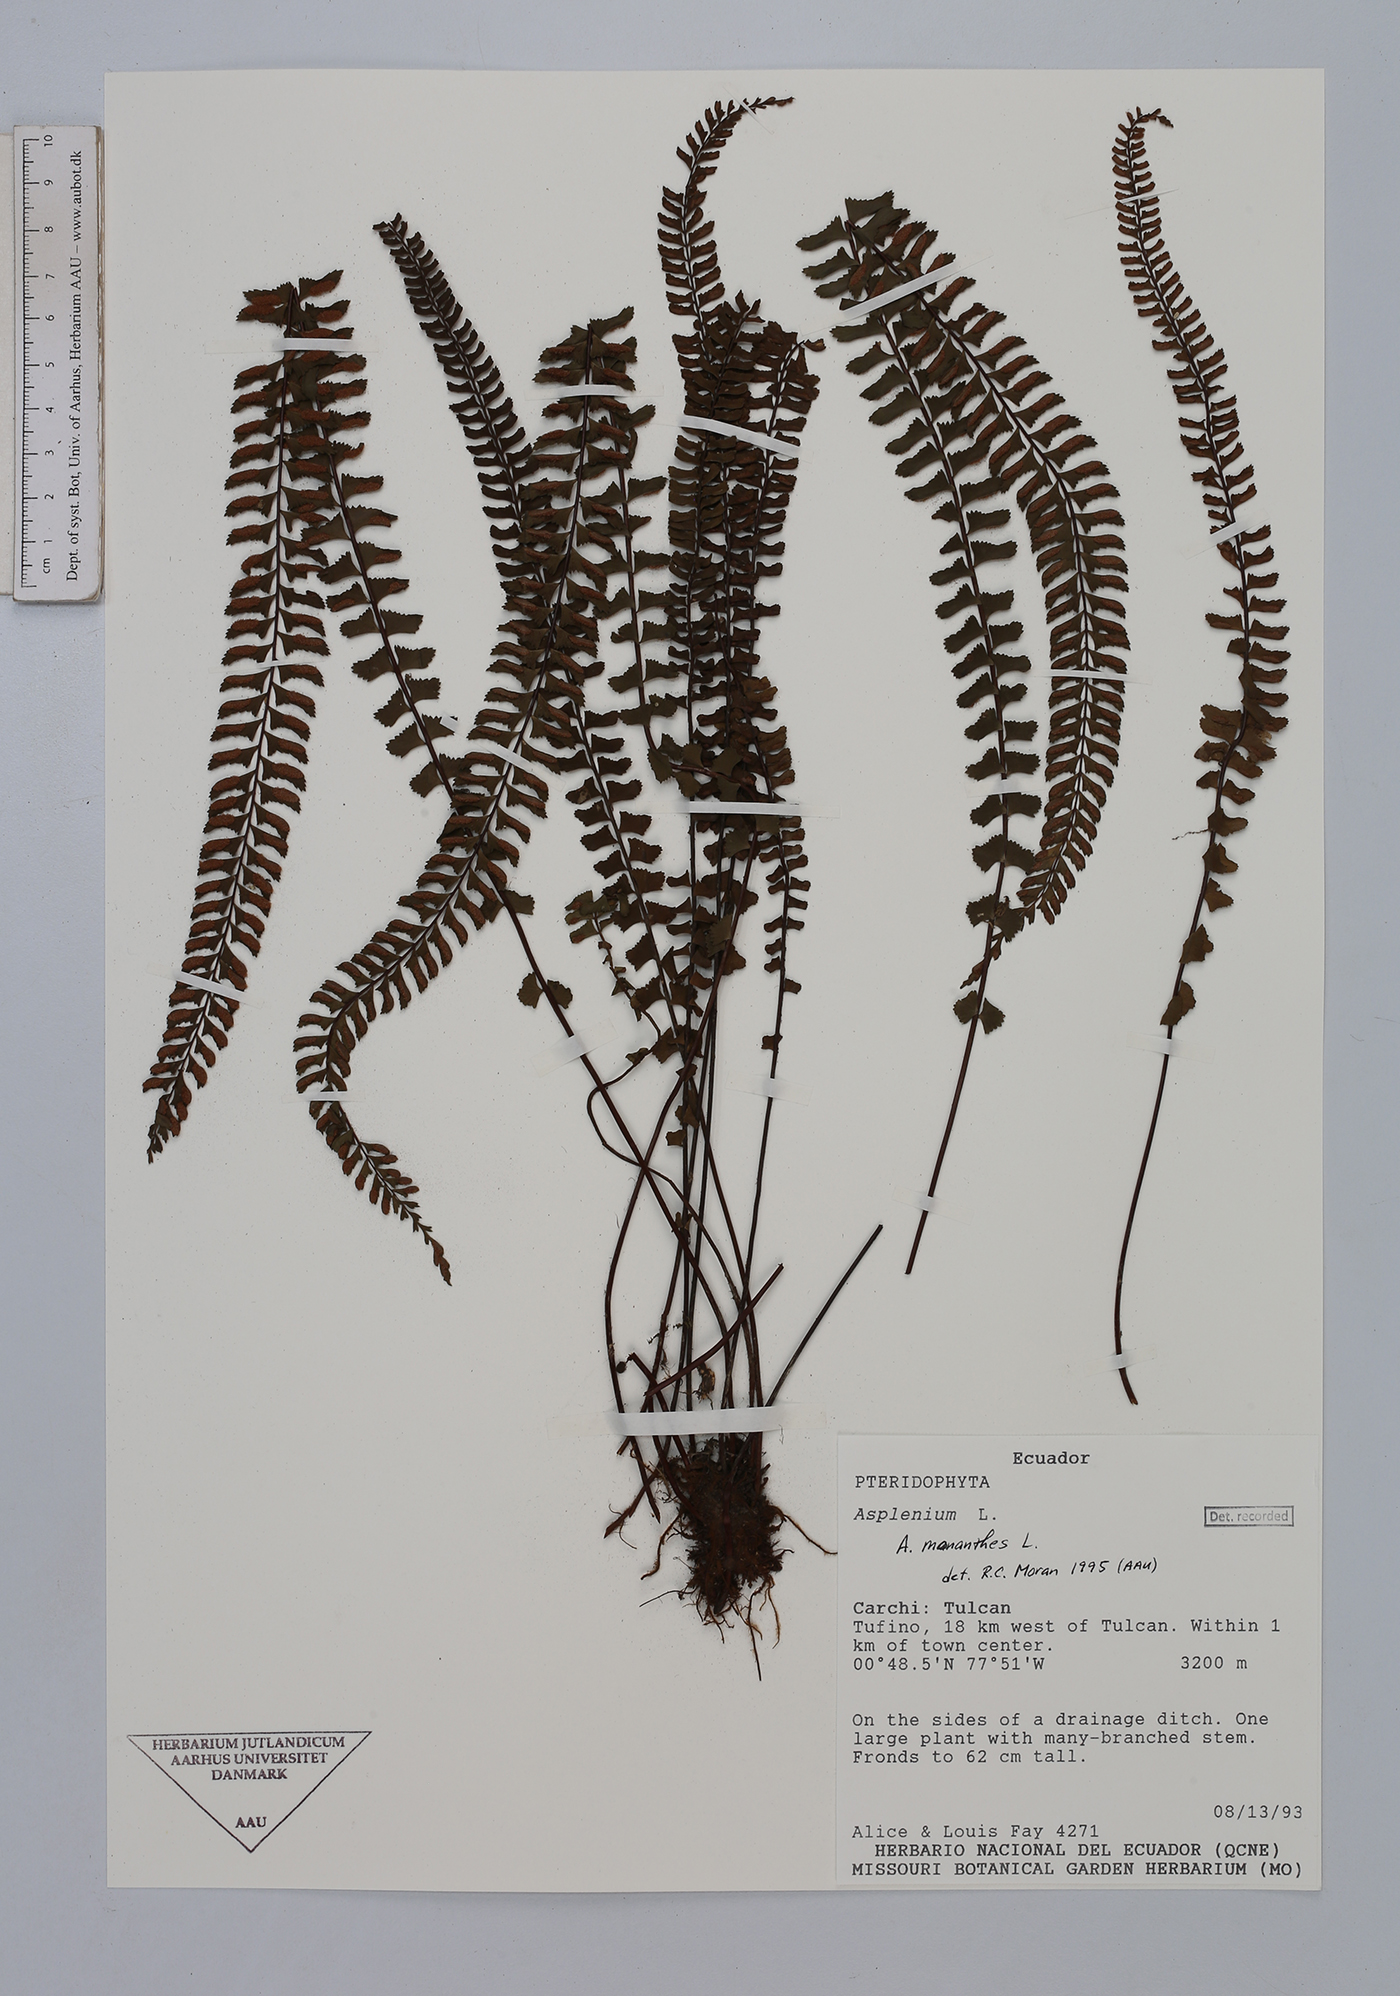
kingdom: Plantae
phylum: Tracheophyta
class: Polypodiopsida
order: Polypodiales
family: Aspleniaceae
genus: Asplenium
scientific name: Asplenium monanthes
